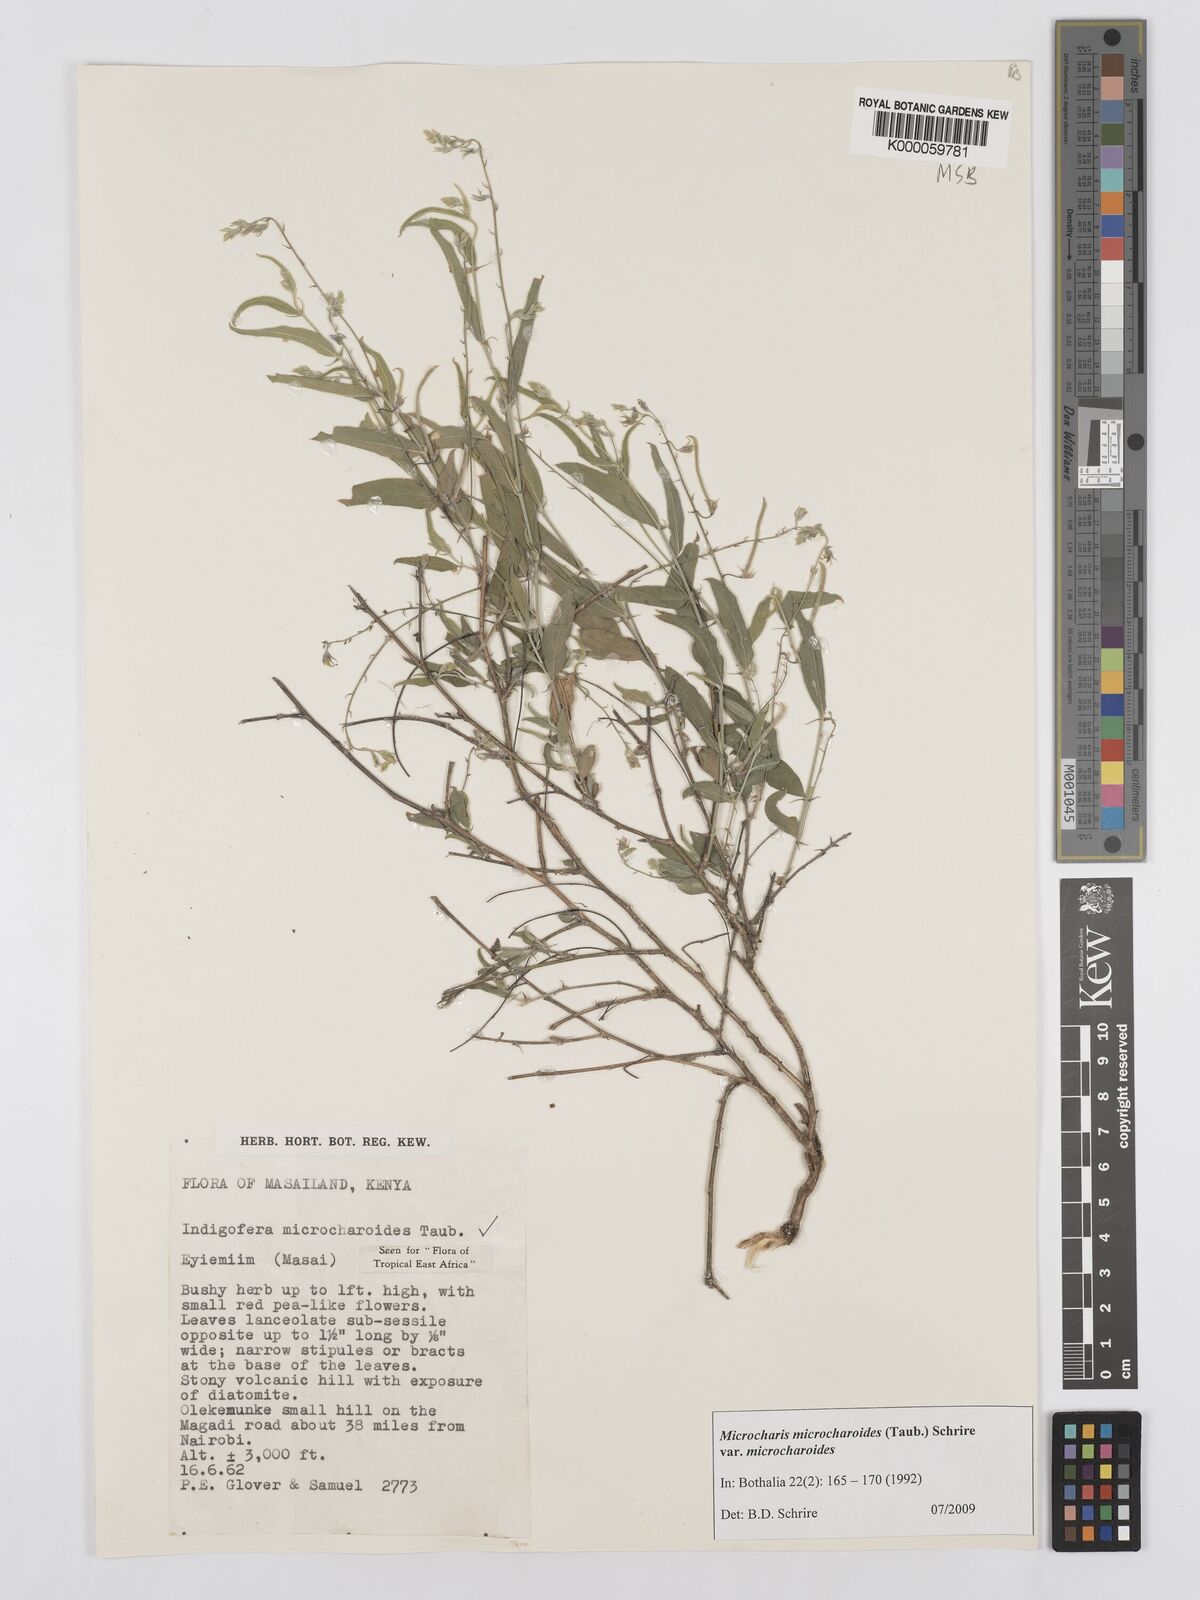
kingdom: Plantae
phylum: Tracheophyta
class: Magnoliopsida
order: Fabales
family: Fabaceae
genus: Microcharis
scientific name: Microcharis microcharoides
